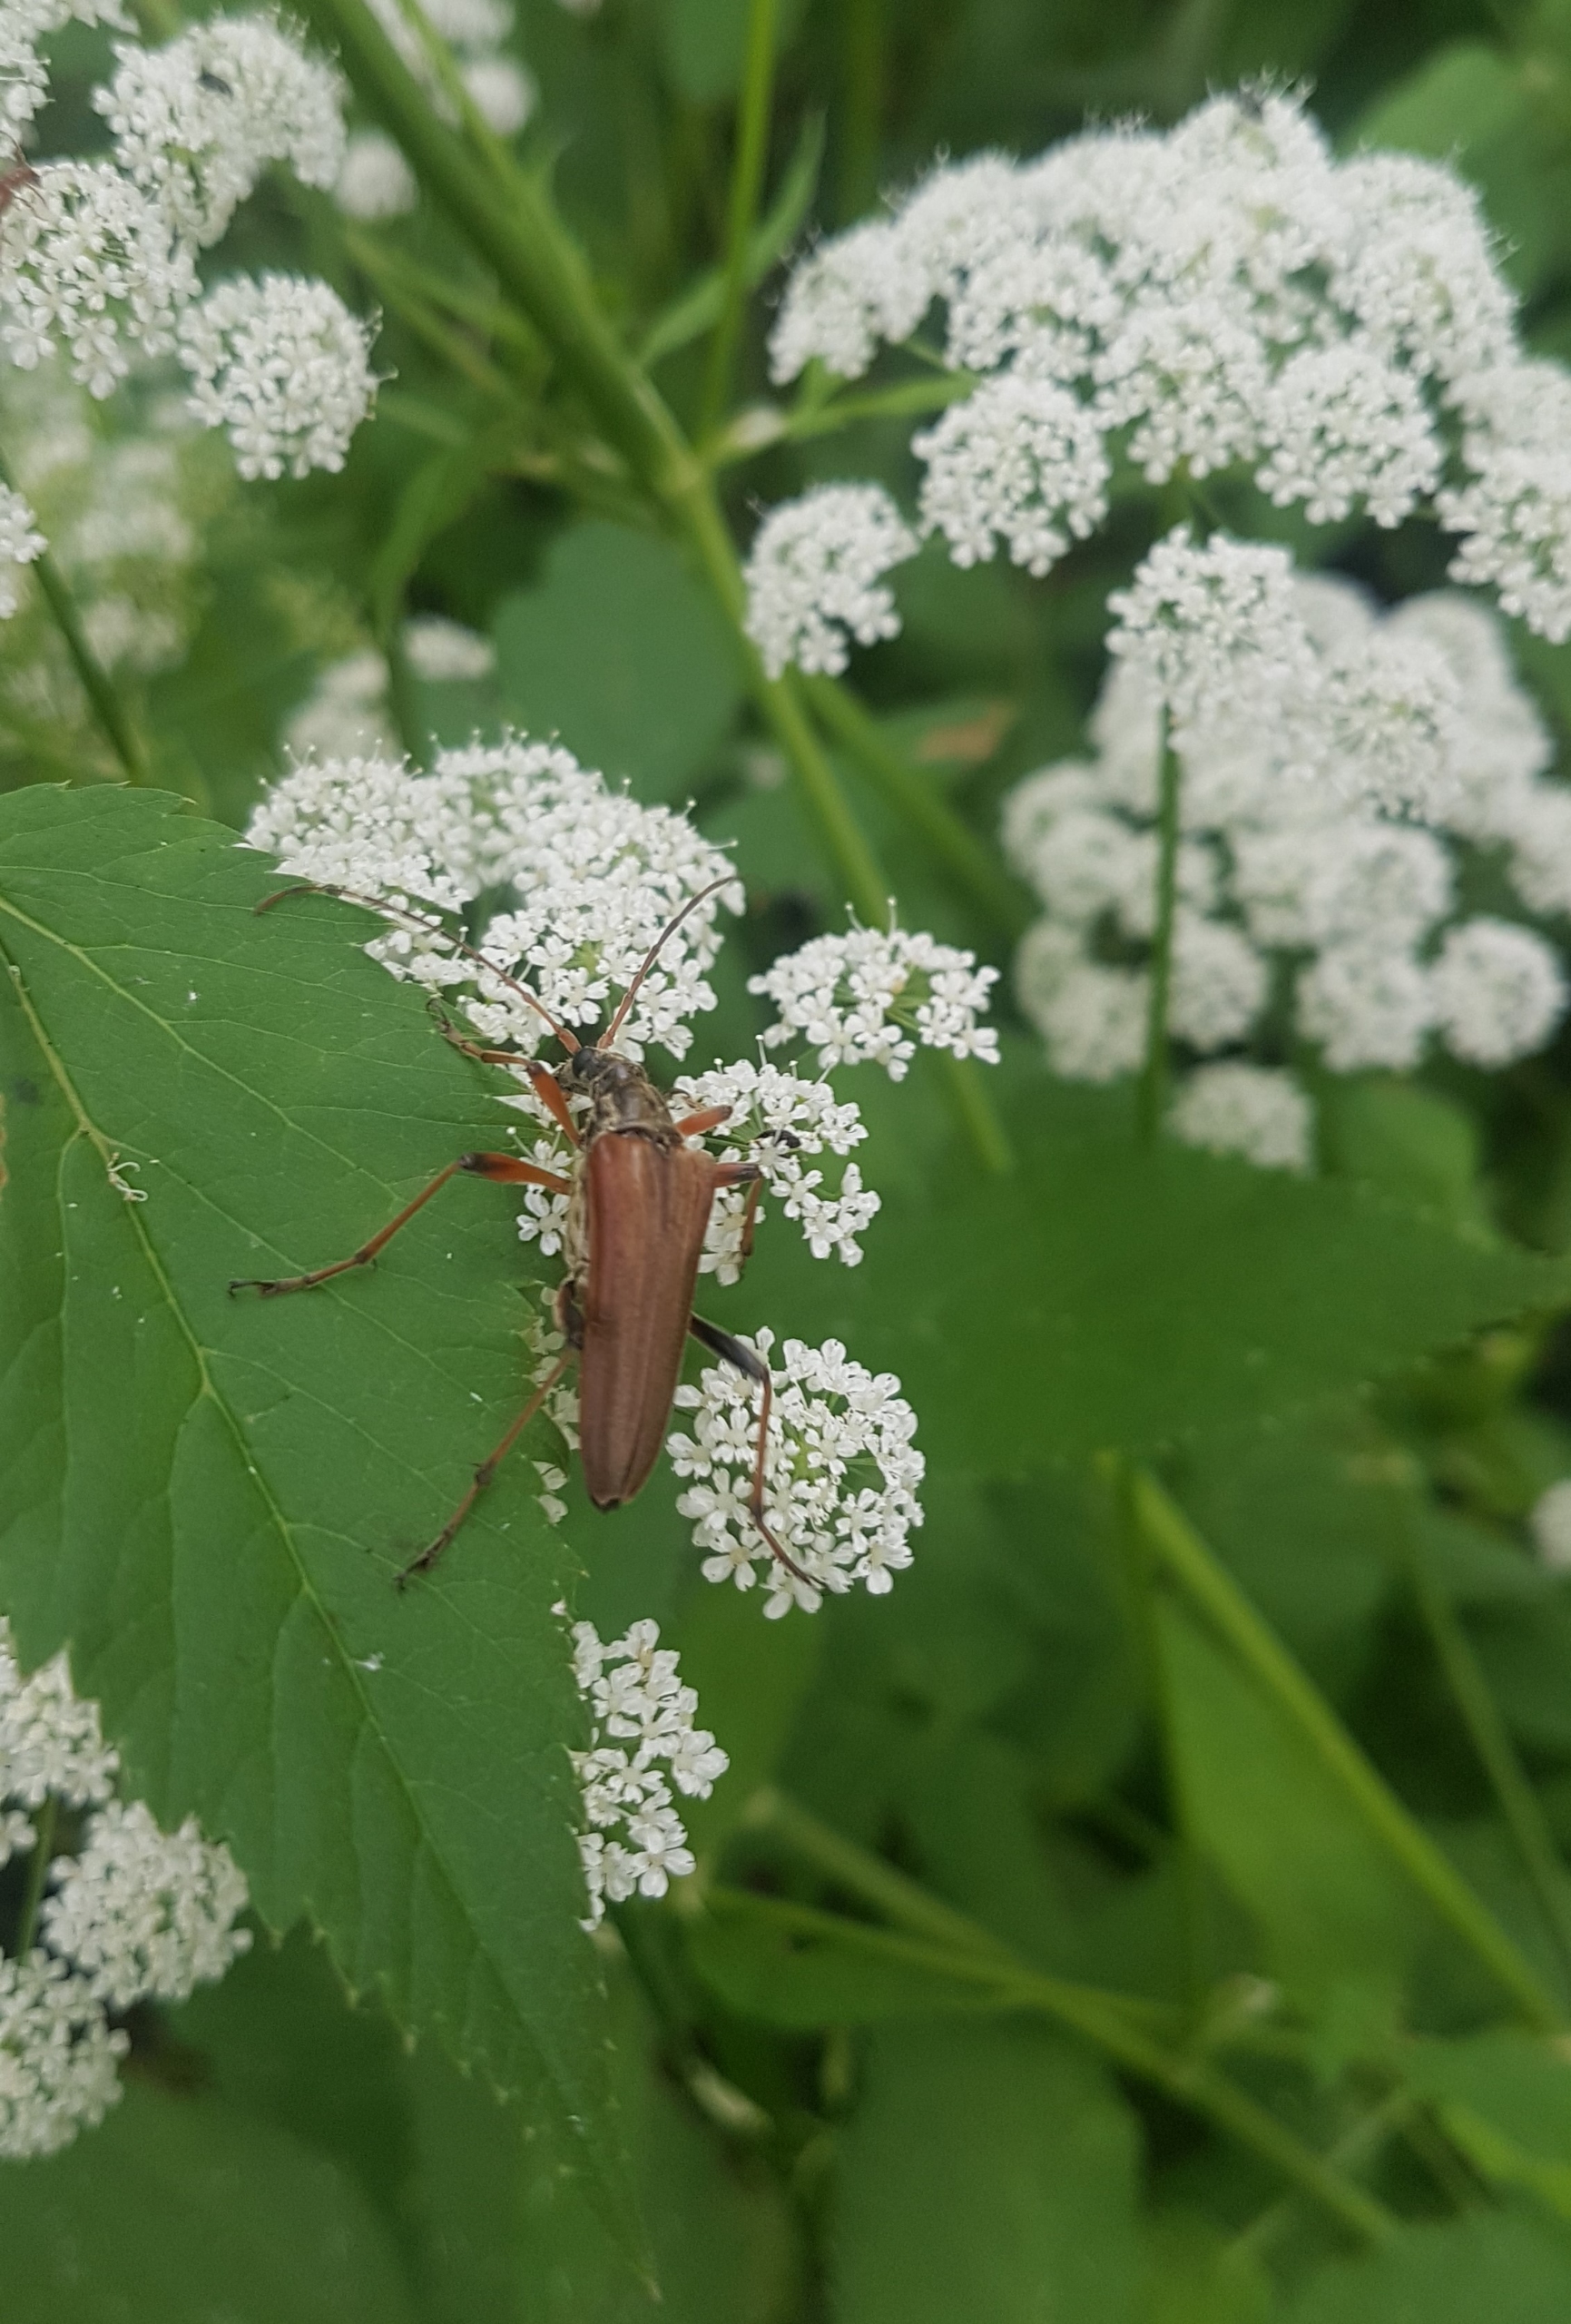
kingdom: Animalia
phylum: Arthropoda
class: Insecta
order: Coleoptera
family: Cerambycidae
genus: Stenocorus
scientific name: Stenocorus meridianus
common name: Smalbuk
